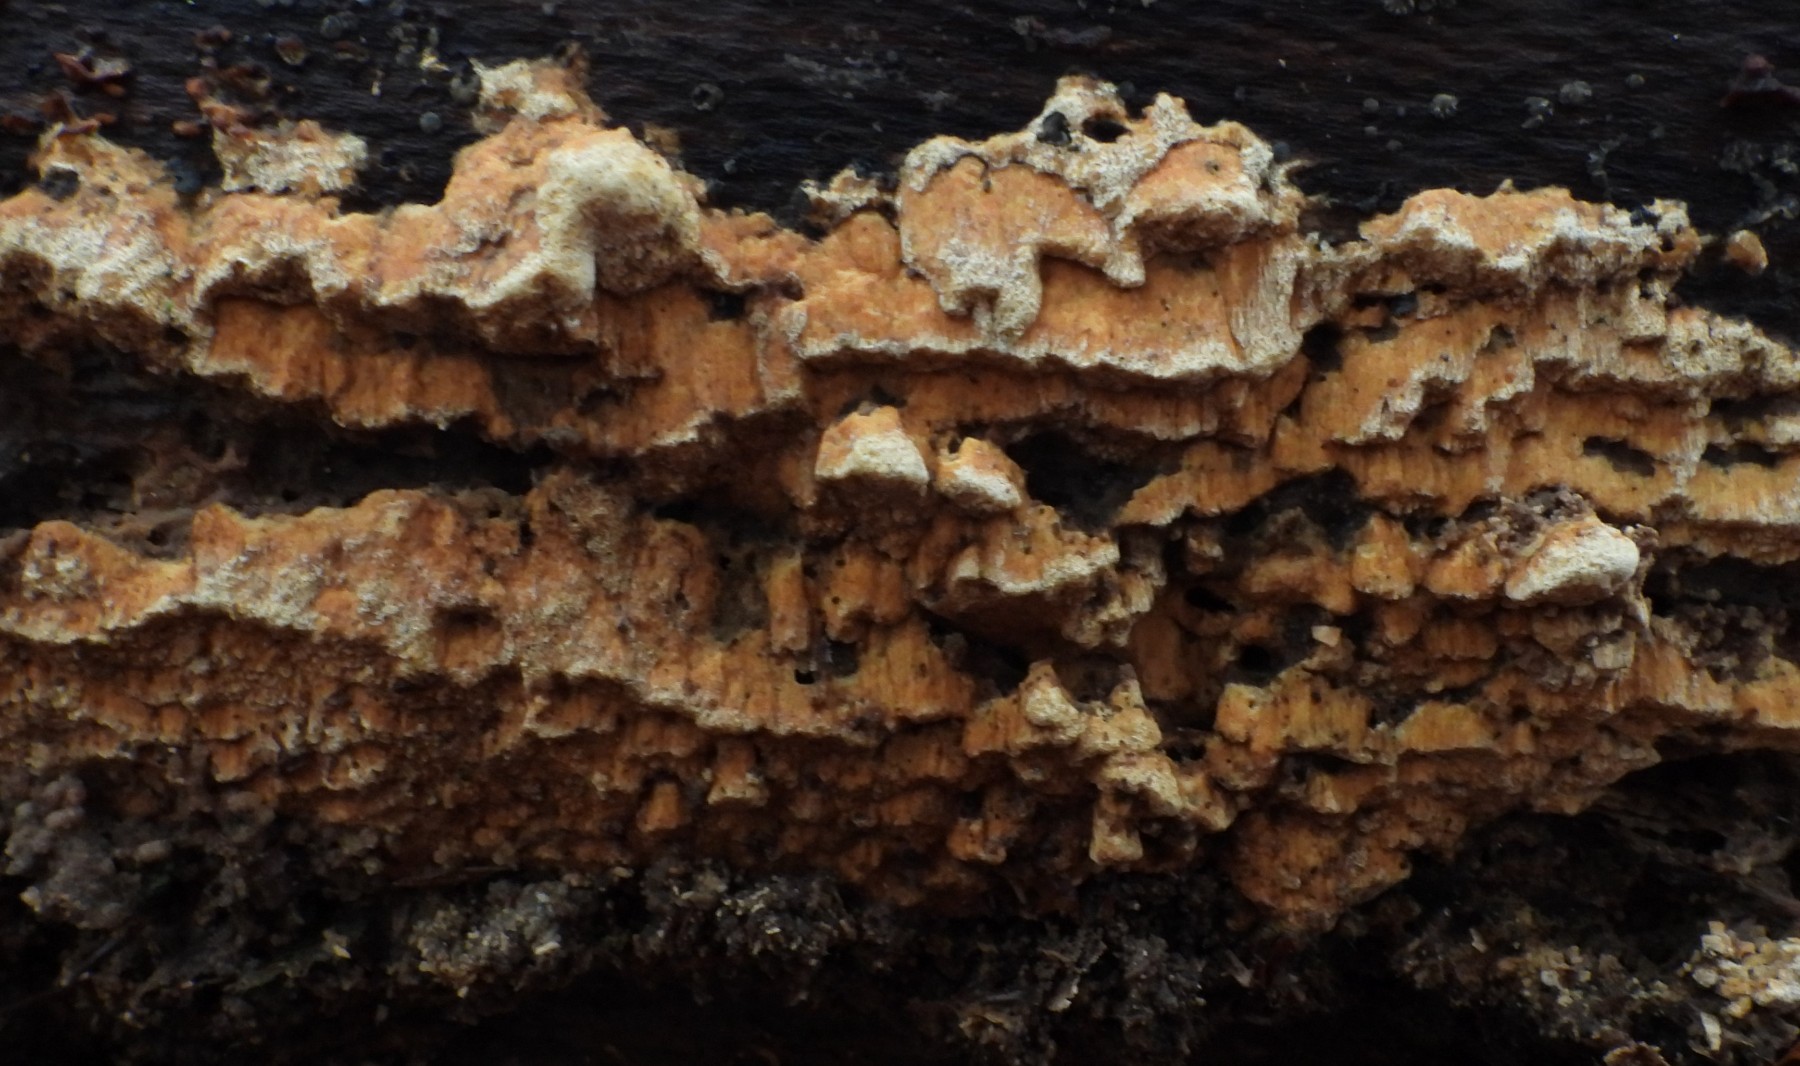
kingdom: Fungi
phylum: Basidiomycota
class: Agaricomycetes
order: Hymenochaetales
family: Hymenochaetaceae
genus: Mensularia
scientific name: Mensularia nodulosa
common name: bøge-spejlporesvamp
